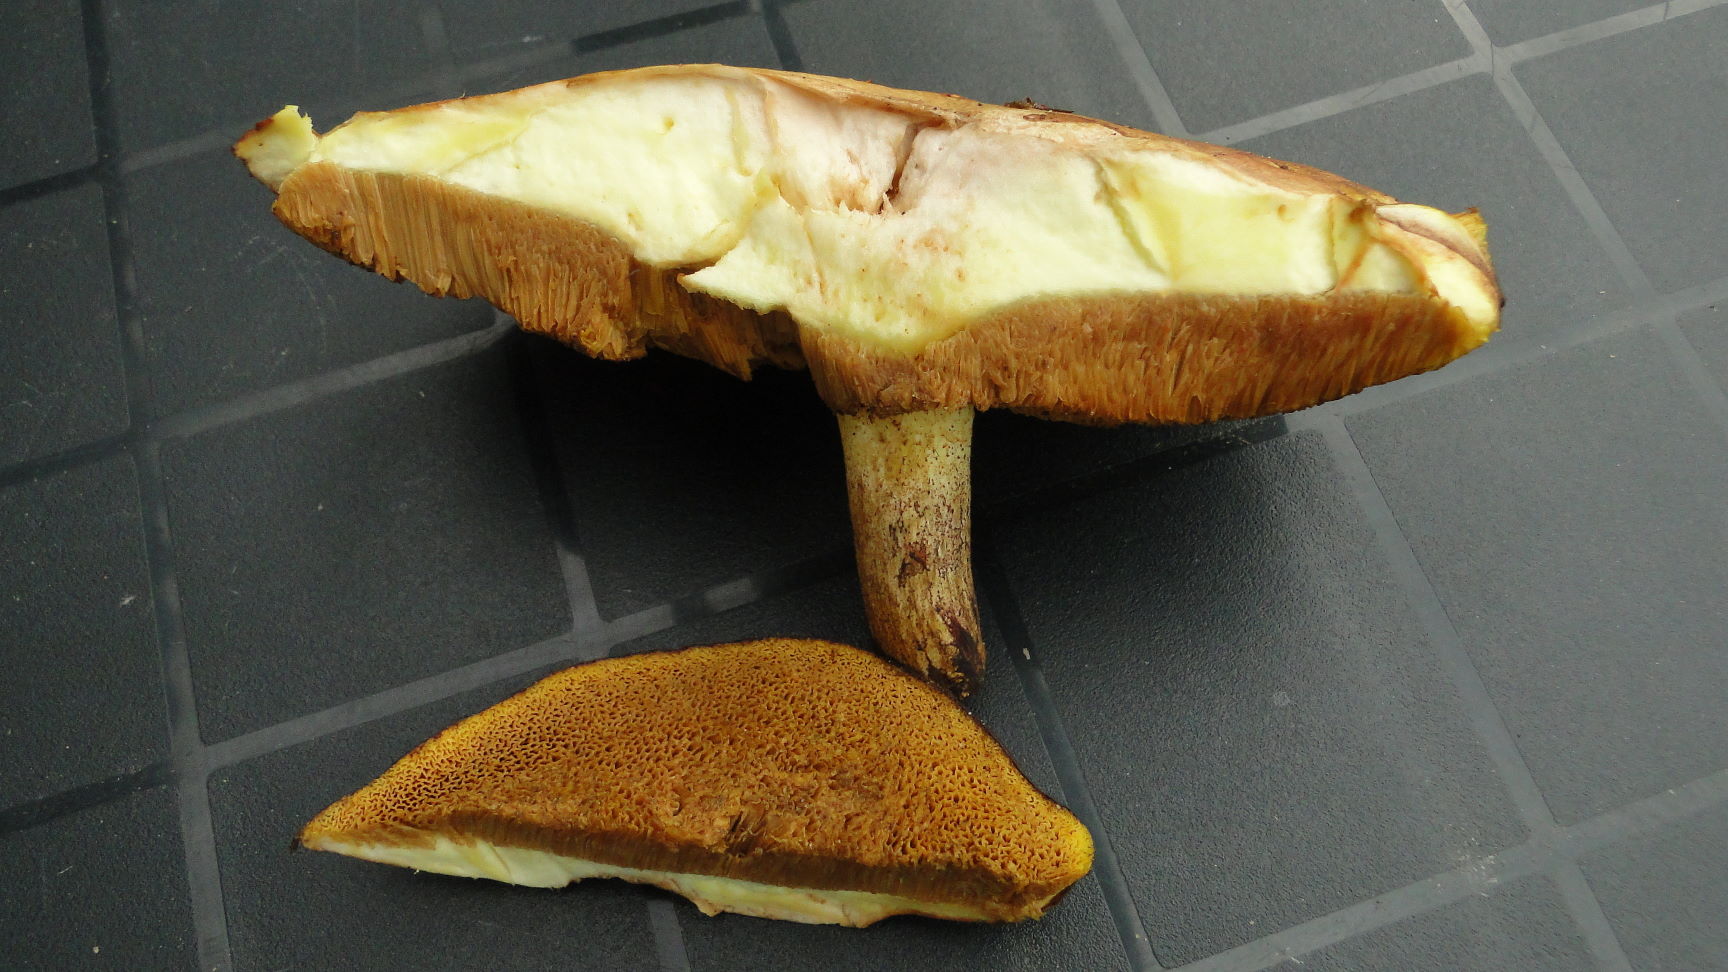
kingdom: Fungi
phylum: Basidiomycota
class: Agaricomycetes
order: Boletales
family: Suillaceae
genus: Suillus
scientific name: Suillus granulatus
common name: kornet slimrørhat
